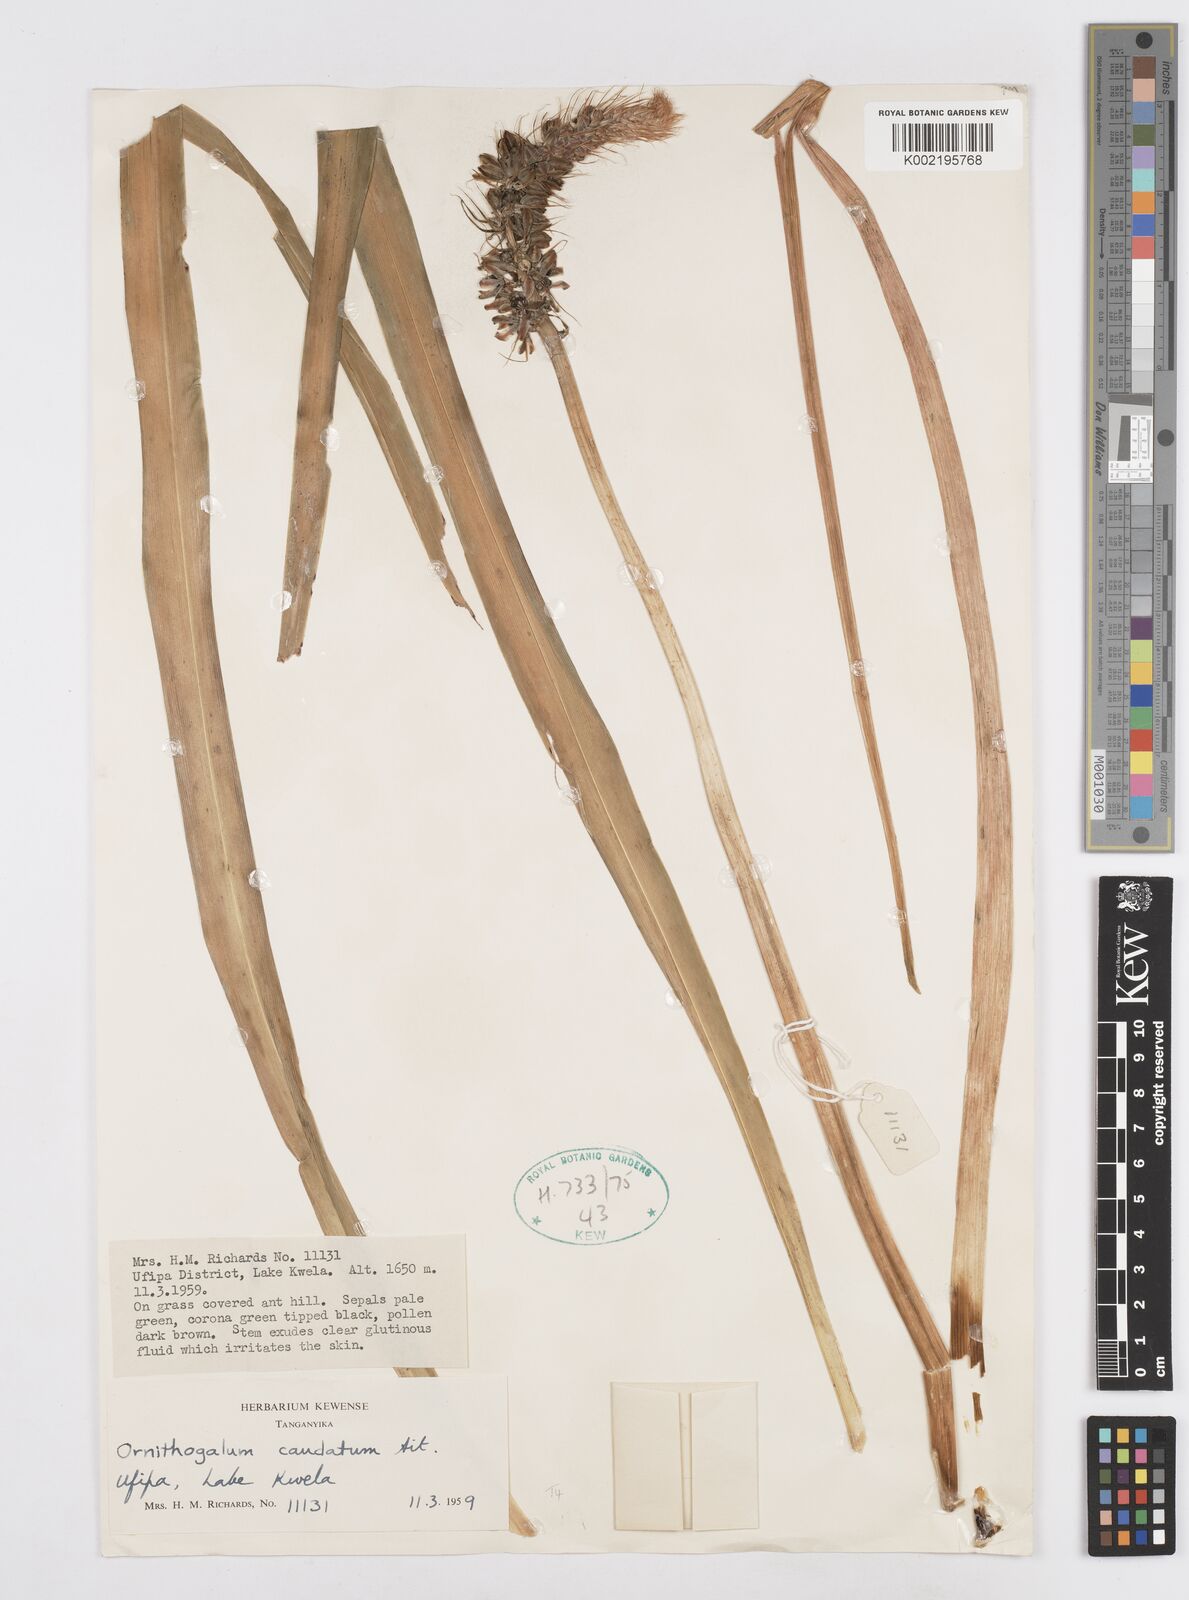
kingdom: Plantae
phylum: Tracheophyta
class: Liliopsida
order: Asparagales
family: Asparagaceae
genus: Albuca
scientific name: Albuca bracteata
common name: Sea-onion
